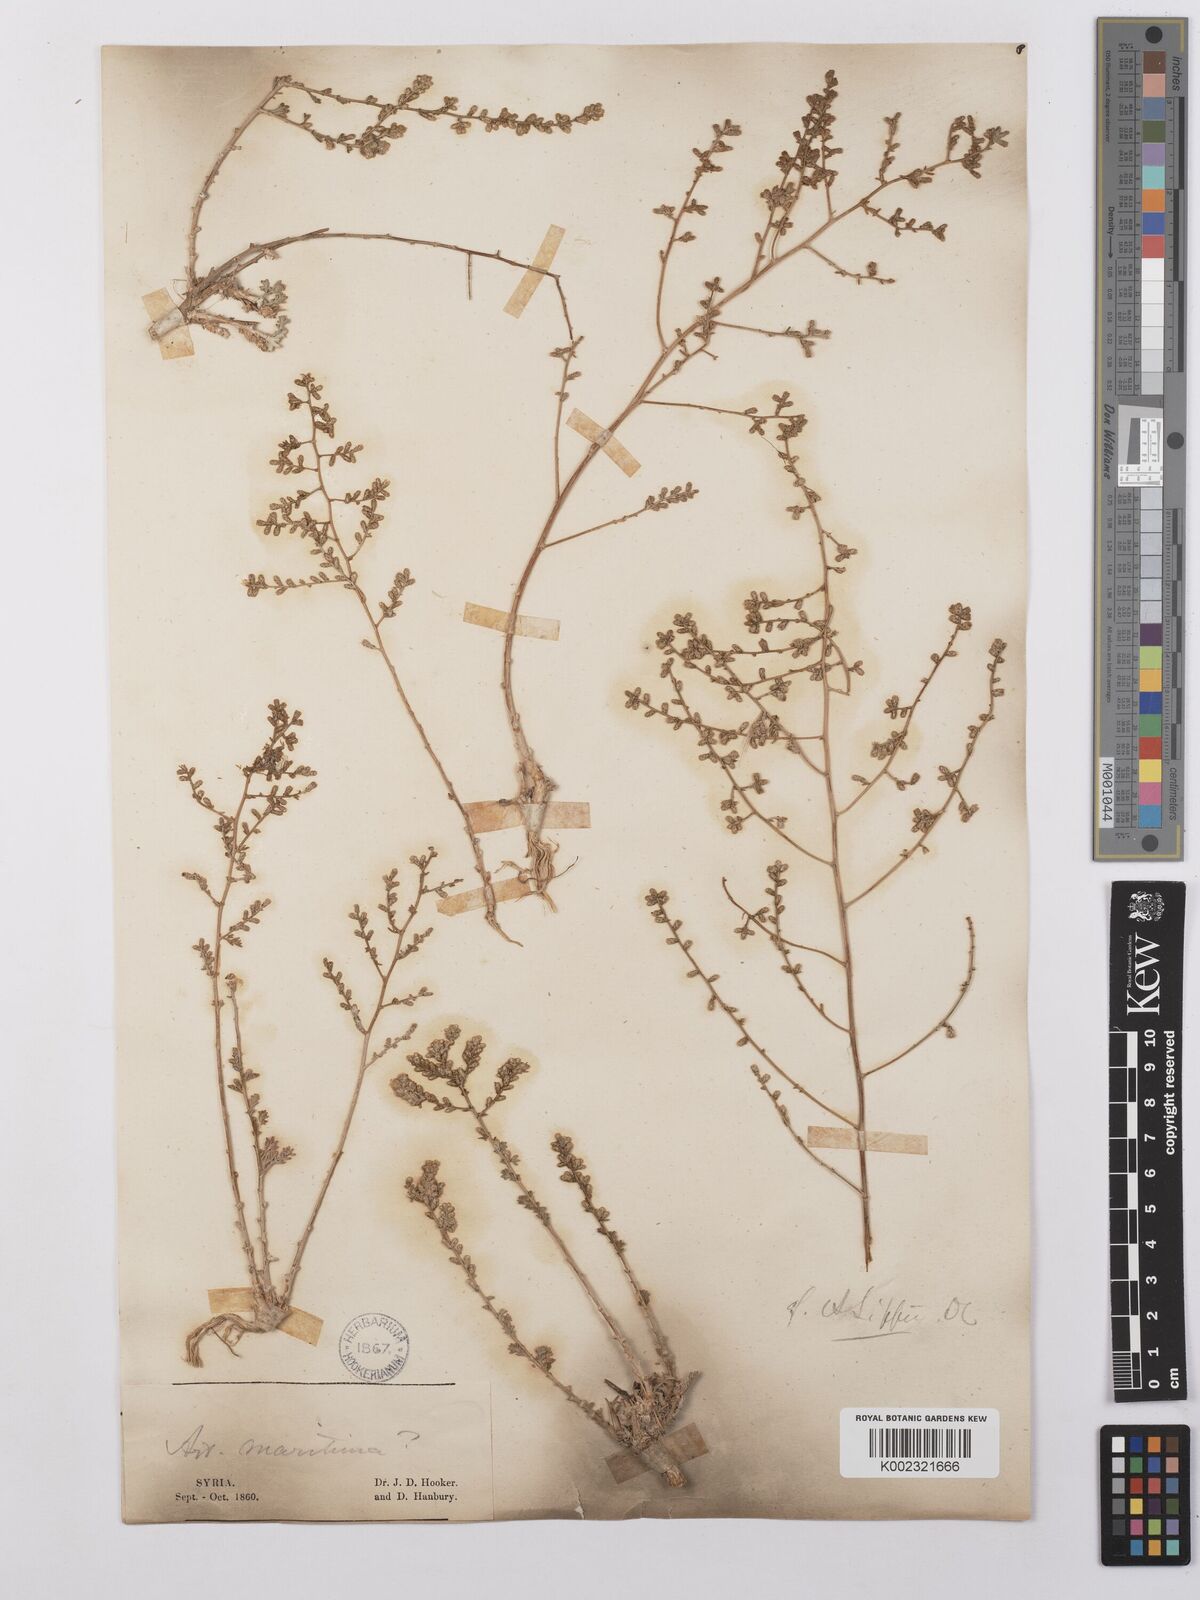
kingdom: Plantae
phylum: Tracheophyta
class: Magnoliopsida
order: Asterales
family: Asteraceae
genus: Artemisia
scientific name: Artemisia herba-alba
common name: White wormwood
